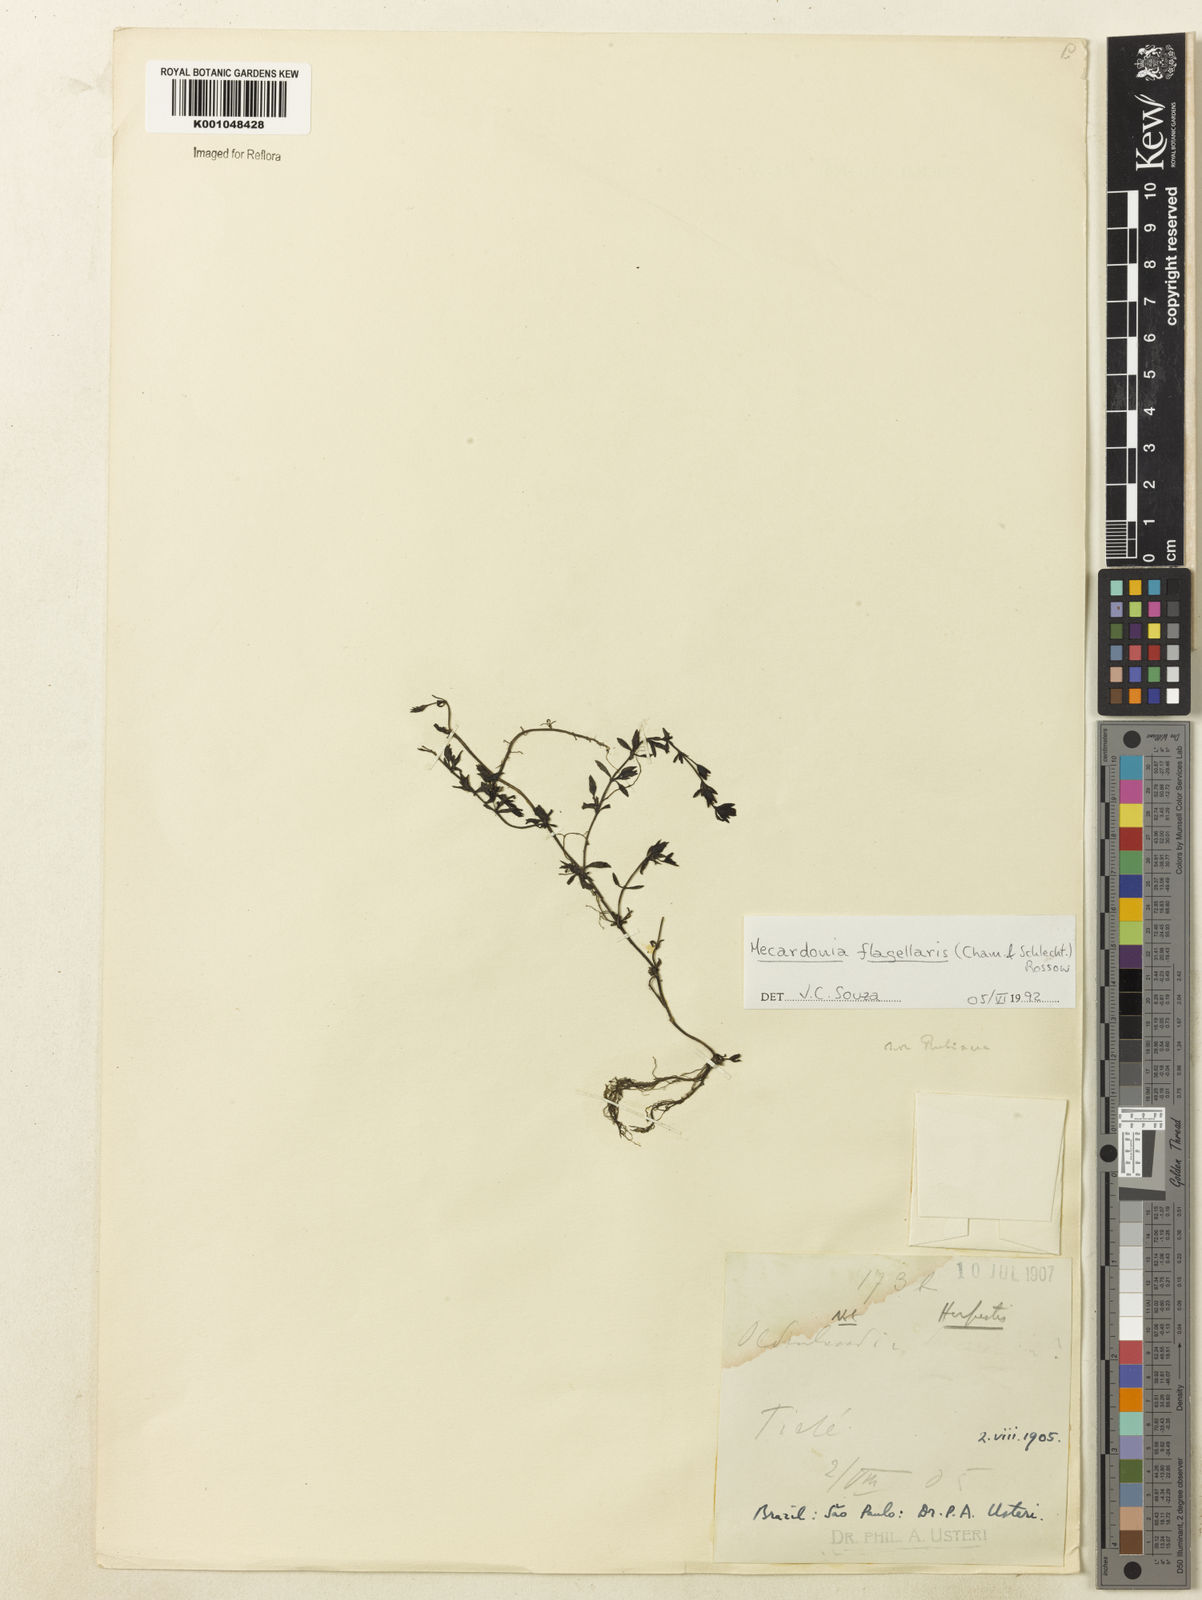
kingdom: Plantae
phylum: Tracheophyta
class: Magnoliopsida
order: Lamiales
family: Plantaginaceae
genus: Mecardonia
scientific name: Mecardonia flagellaris
